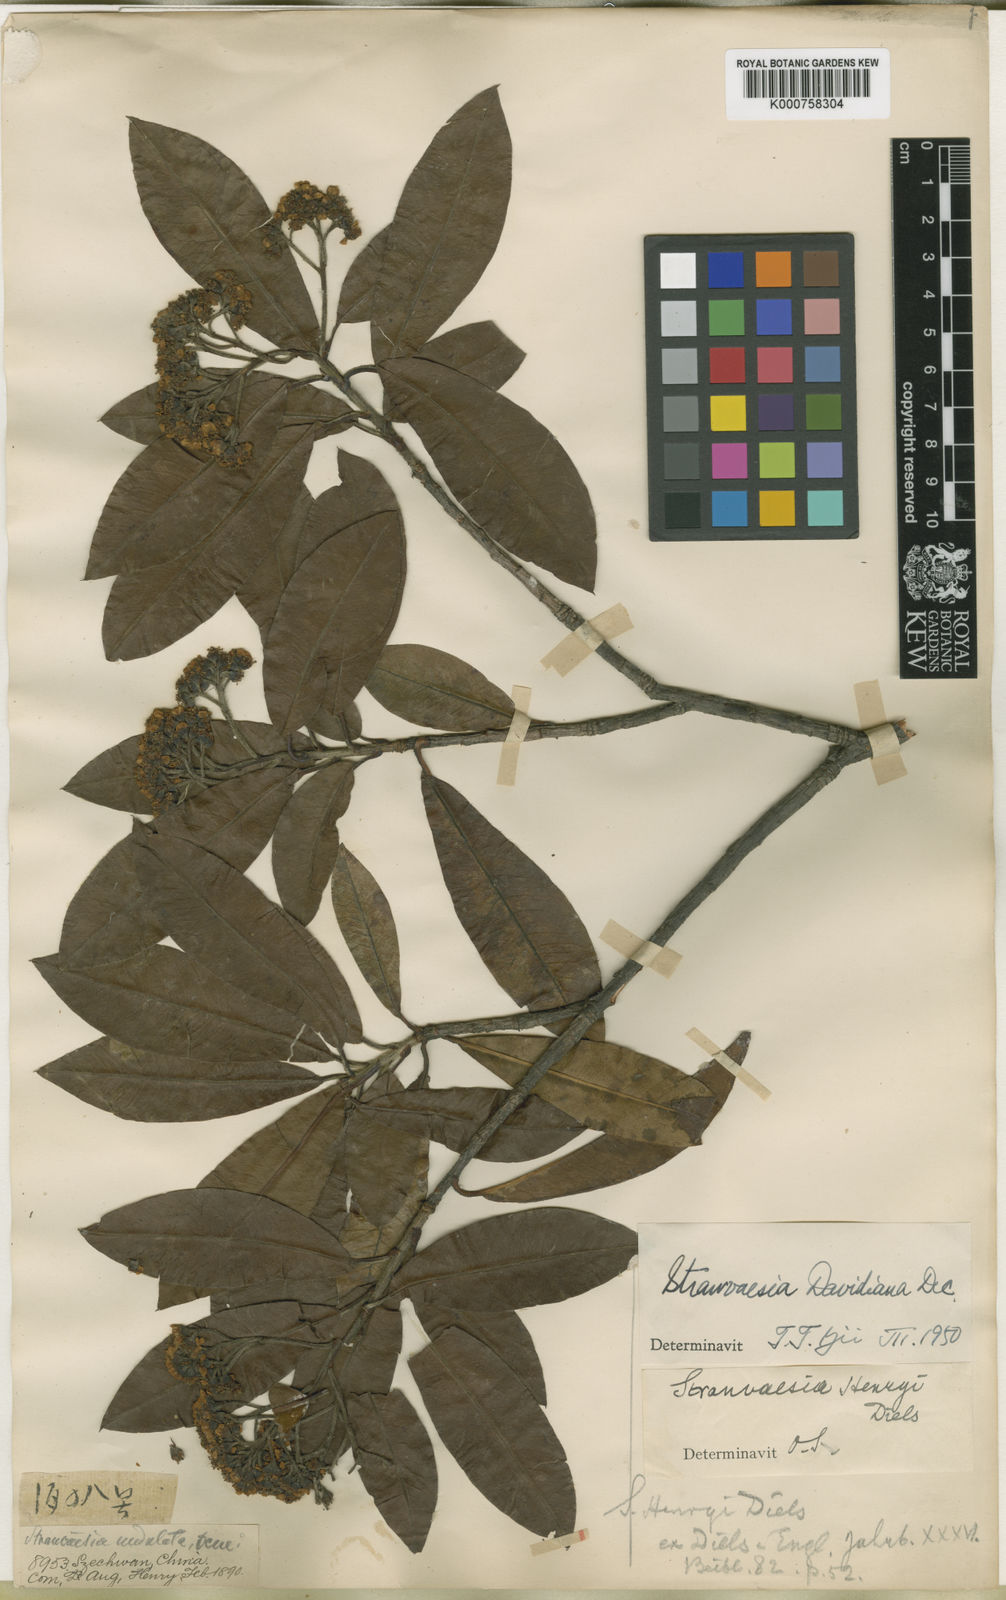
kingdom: Plantae
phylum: Tracheophyta
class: Magnoliopsida
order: Rosales
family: Rosaceae
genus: Stranvaesia
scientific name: Stranvaesia davidiana
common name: Chinese photinia
